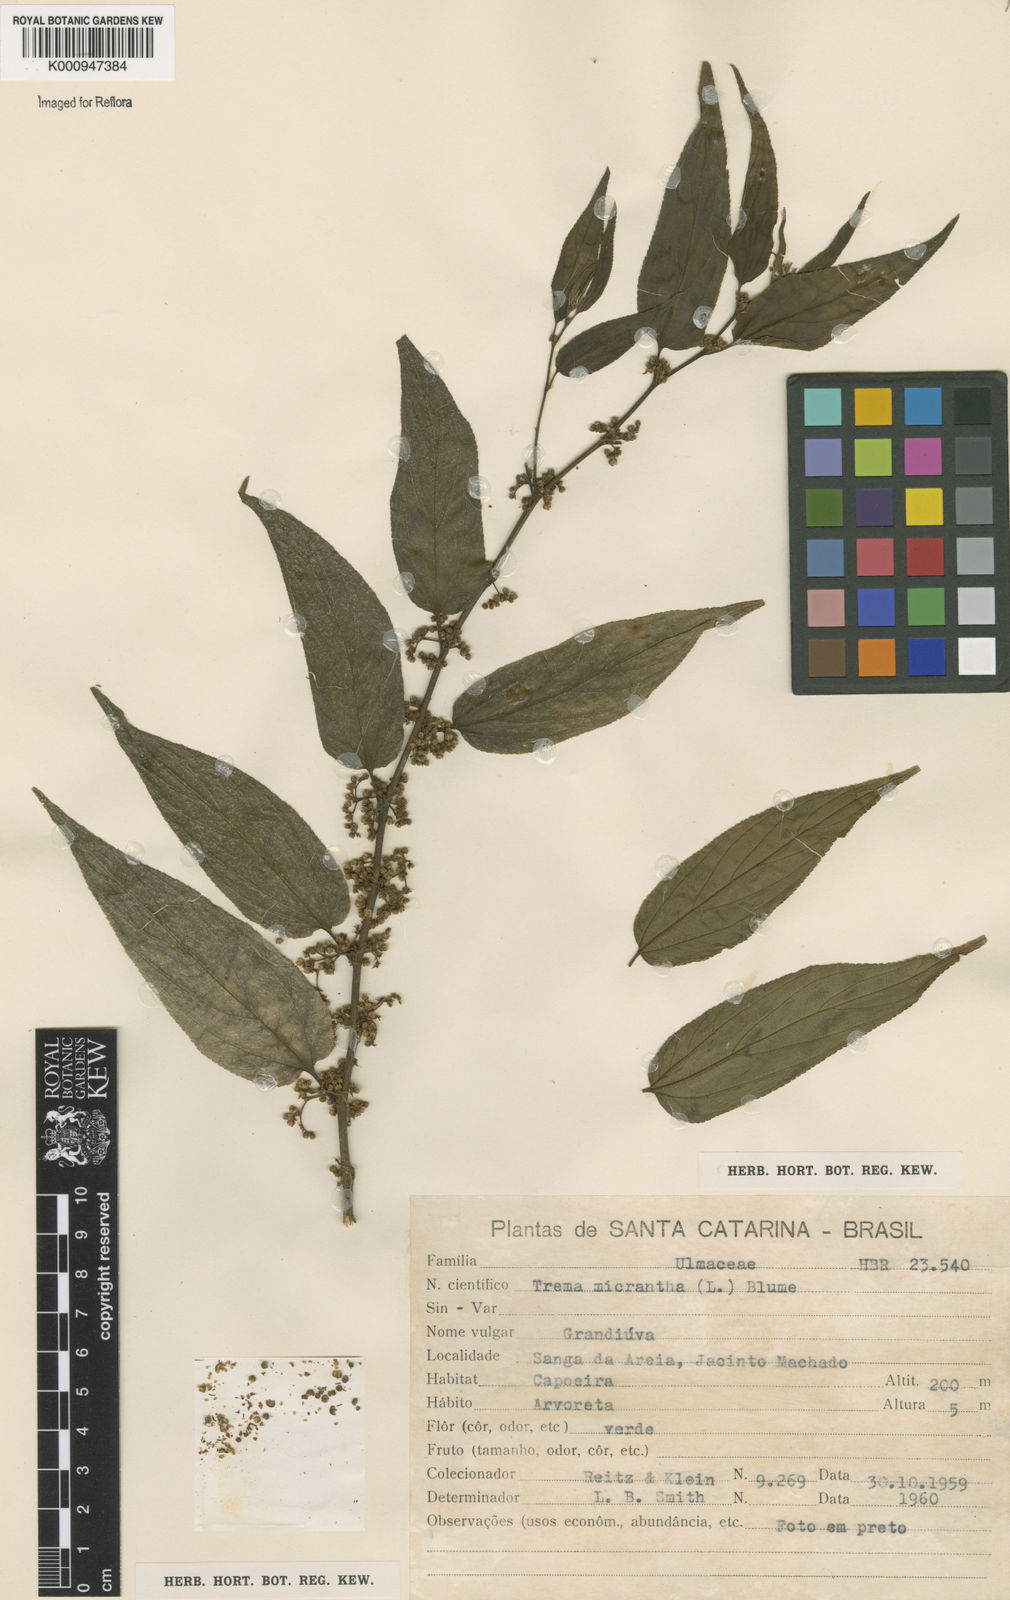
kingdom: Plantae
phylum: Tracheophyta
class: Magnoliopsida
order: Rosales
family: Cannabaceae
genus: Trema
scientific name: Trema micranthum
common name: Jamaican nettletree
